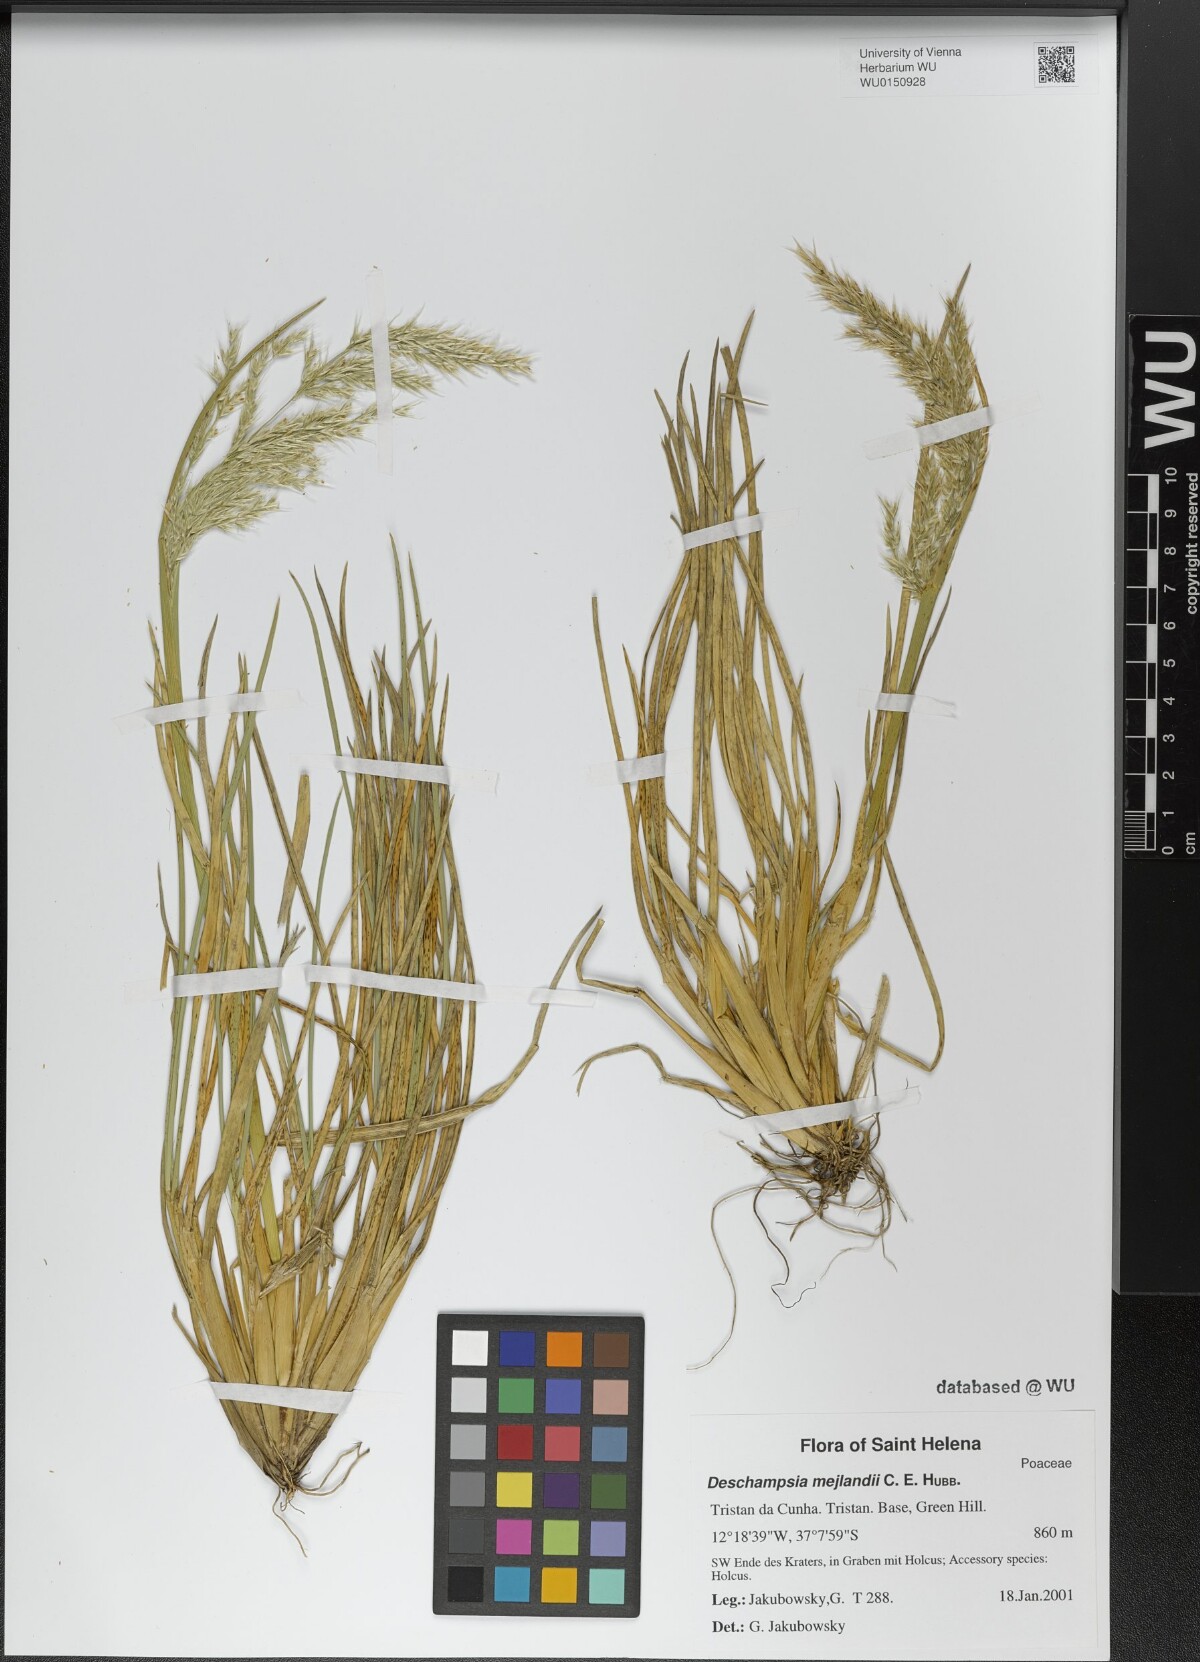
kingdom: Plantae
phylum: Tracheophyta
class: Liliopsida
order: Poales
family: Poaceae
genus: Deschampsia
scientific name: Deschampsia mejlandii
